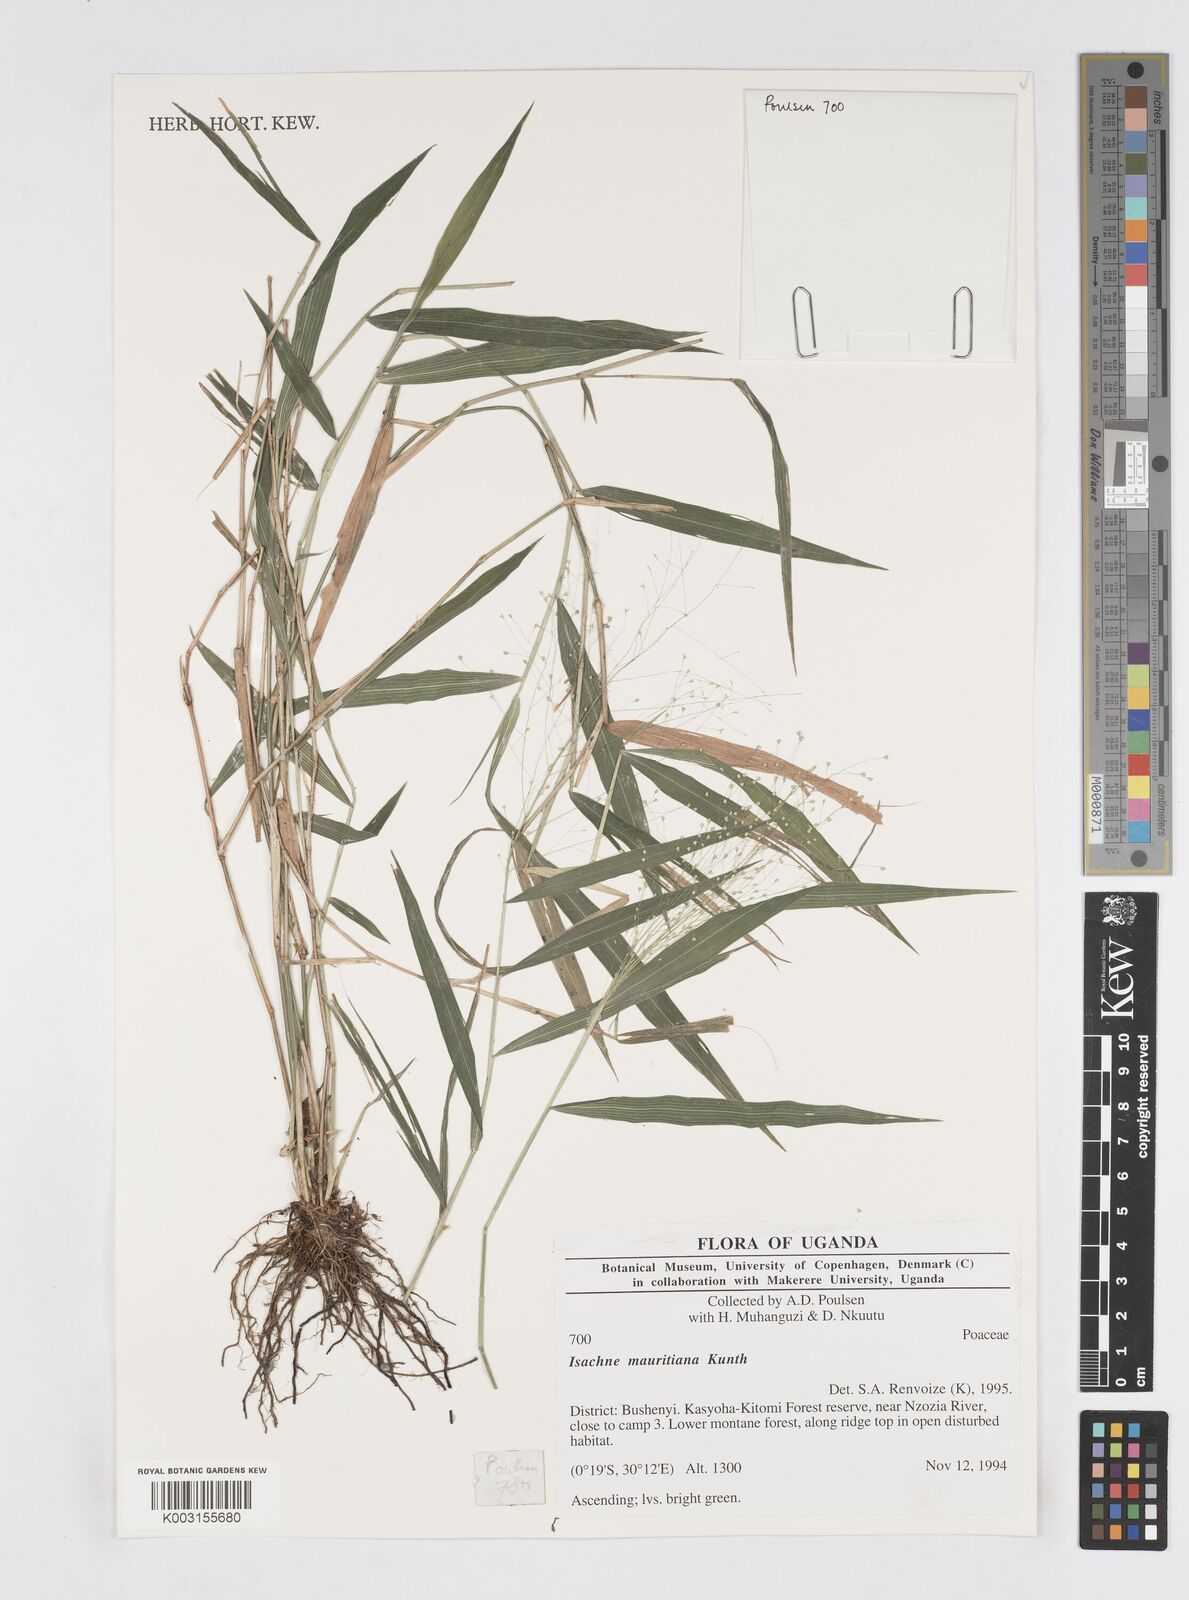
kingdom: Plantae
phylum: Tracheophyta
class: Liliopsida
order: Poales
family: Poaceae
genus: Isachne
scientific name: Isachne mauritiana
